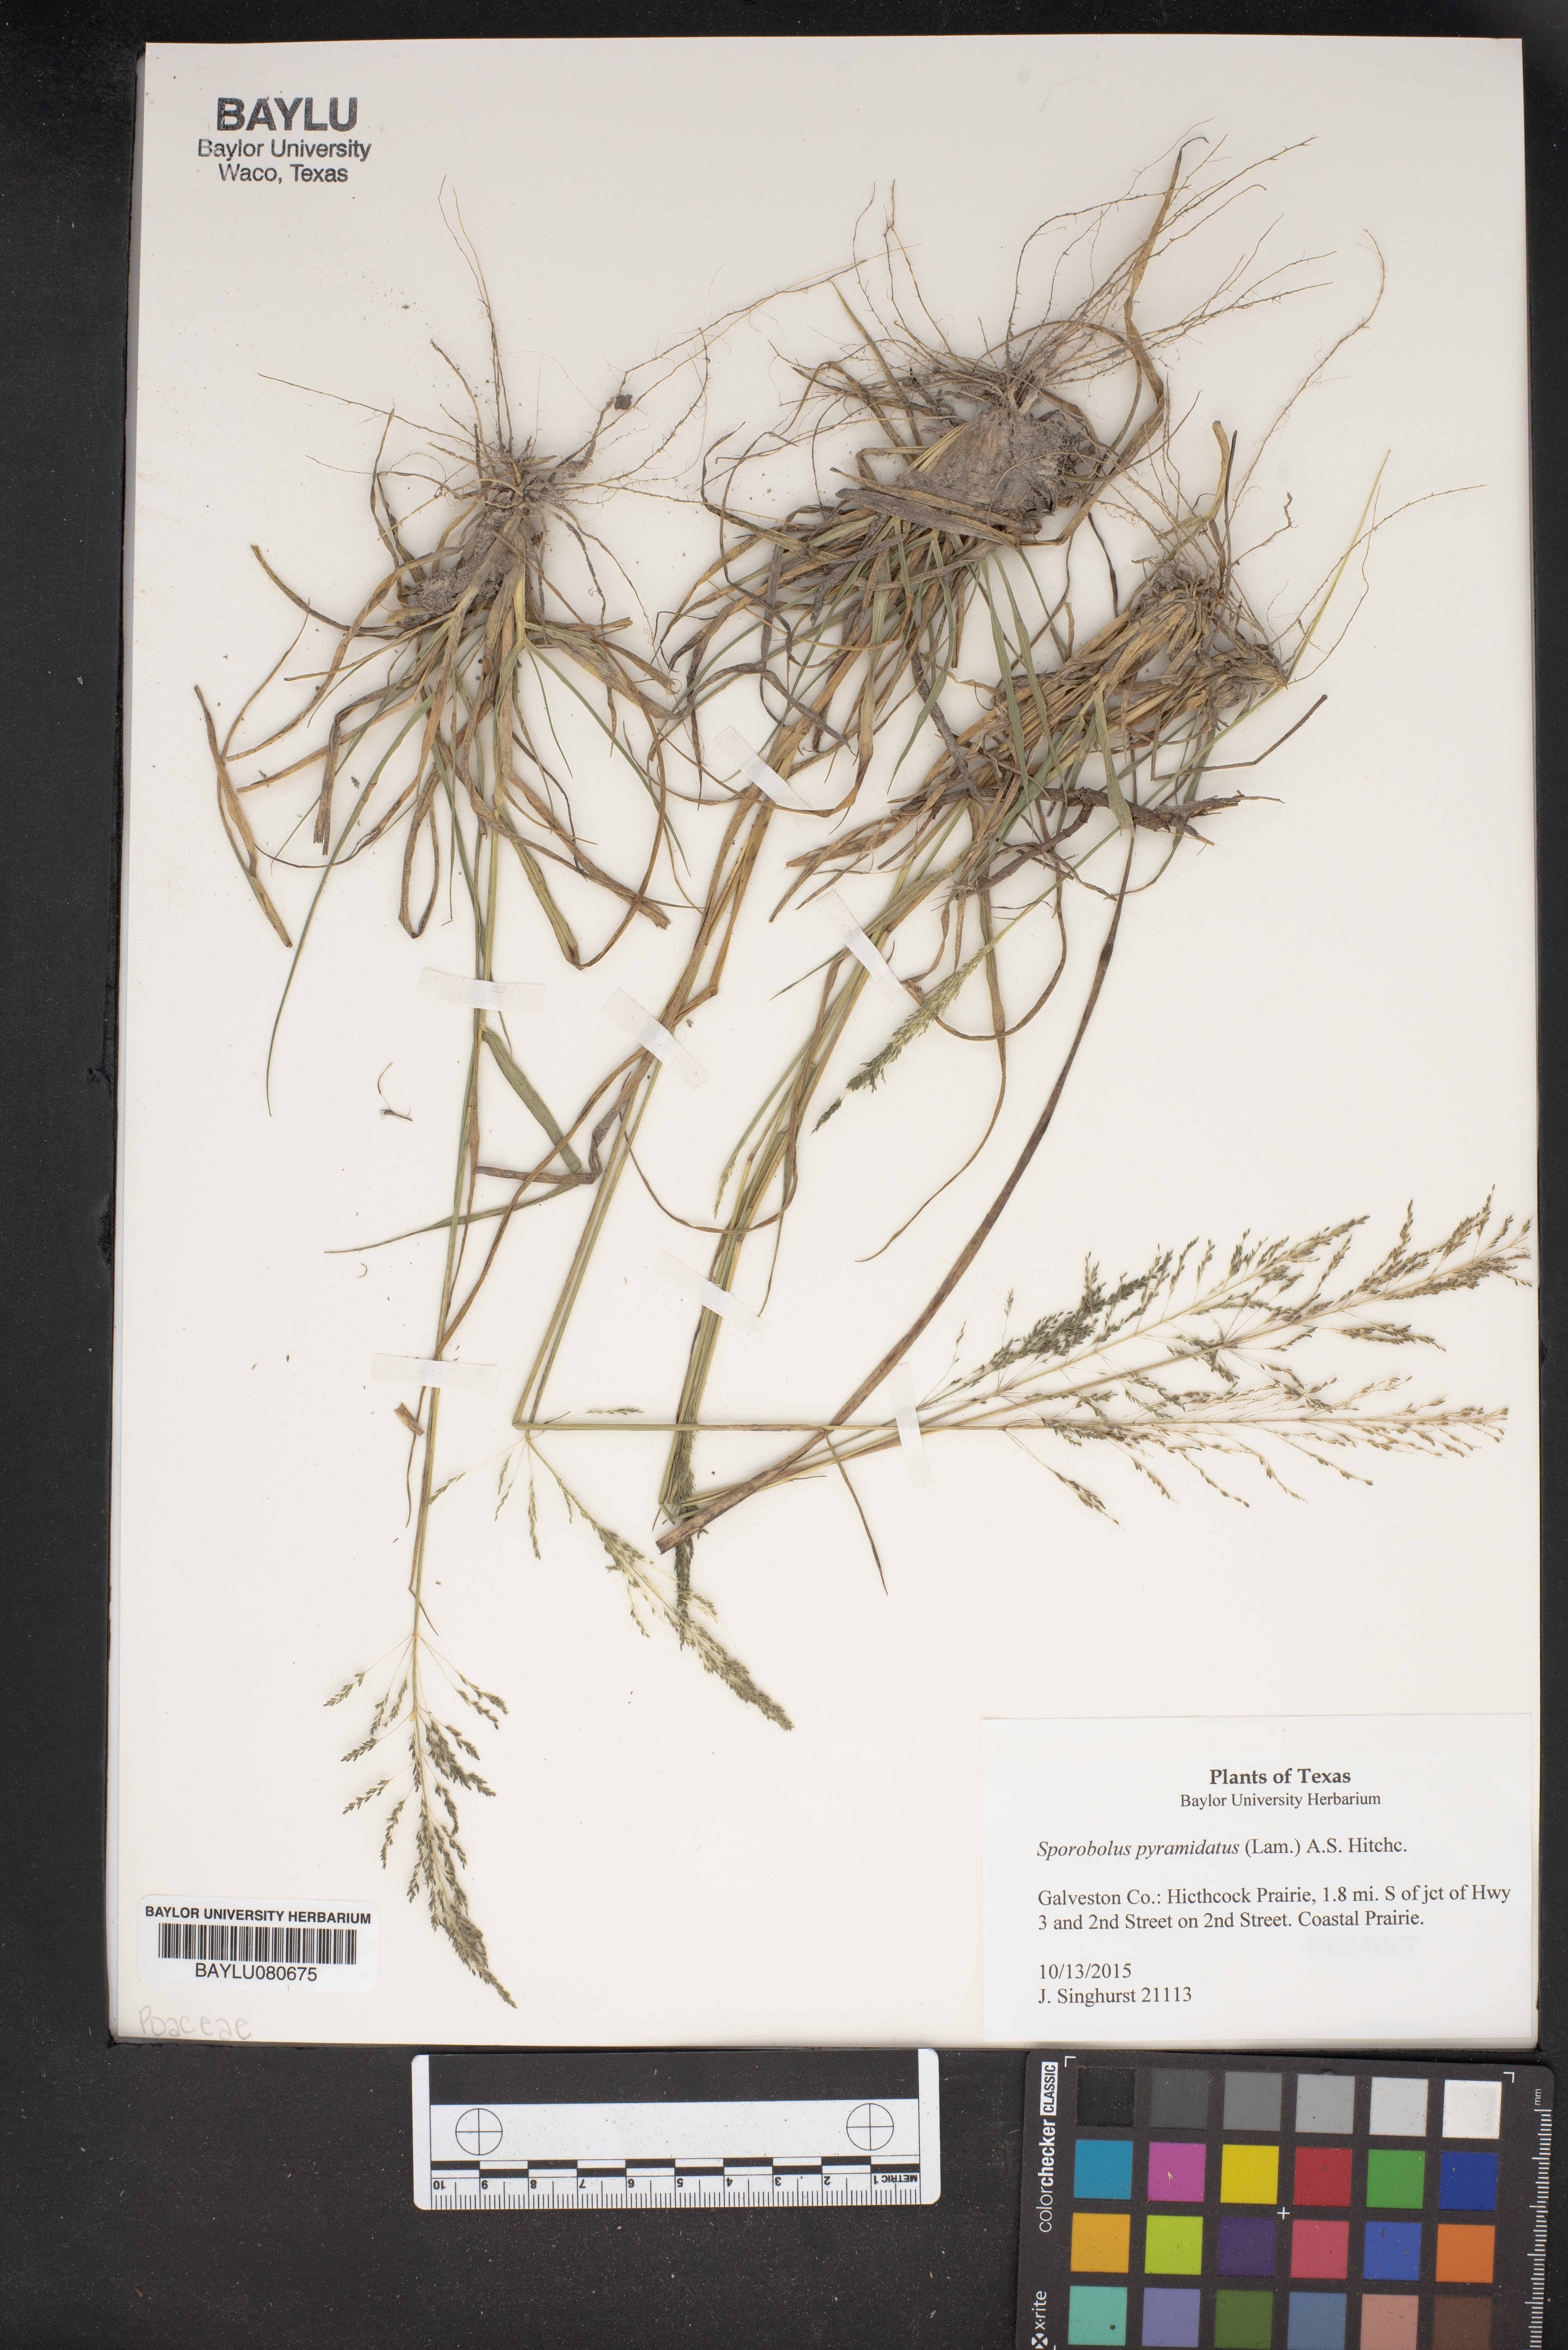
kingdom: Plantae
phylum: Tracheophyta
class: Liliopsida
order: Poales
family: Poaceae
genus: Sporobolus
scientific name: Sporobolus pyramidatus
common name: Whorled dropseed
